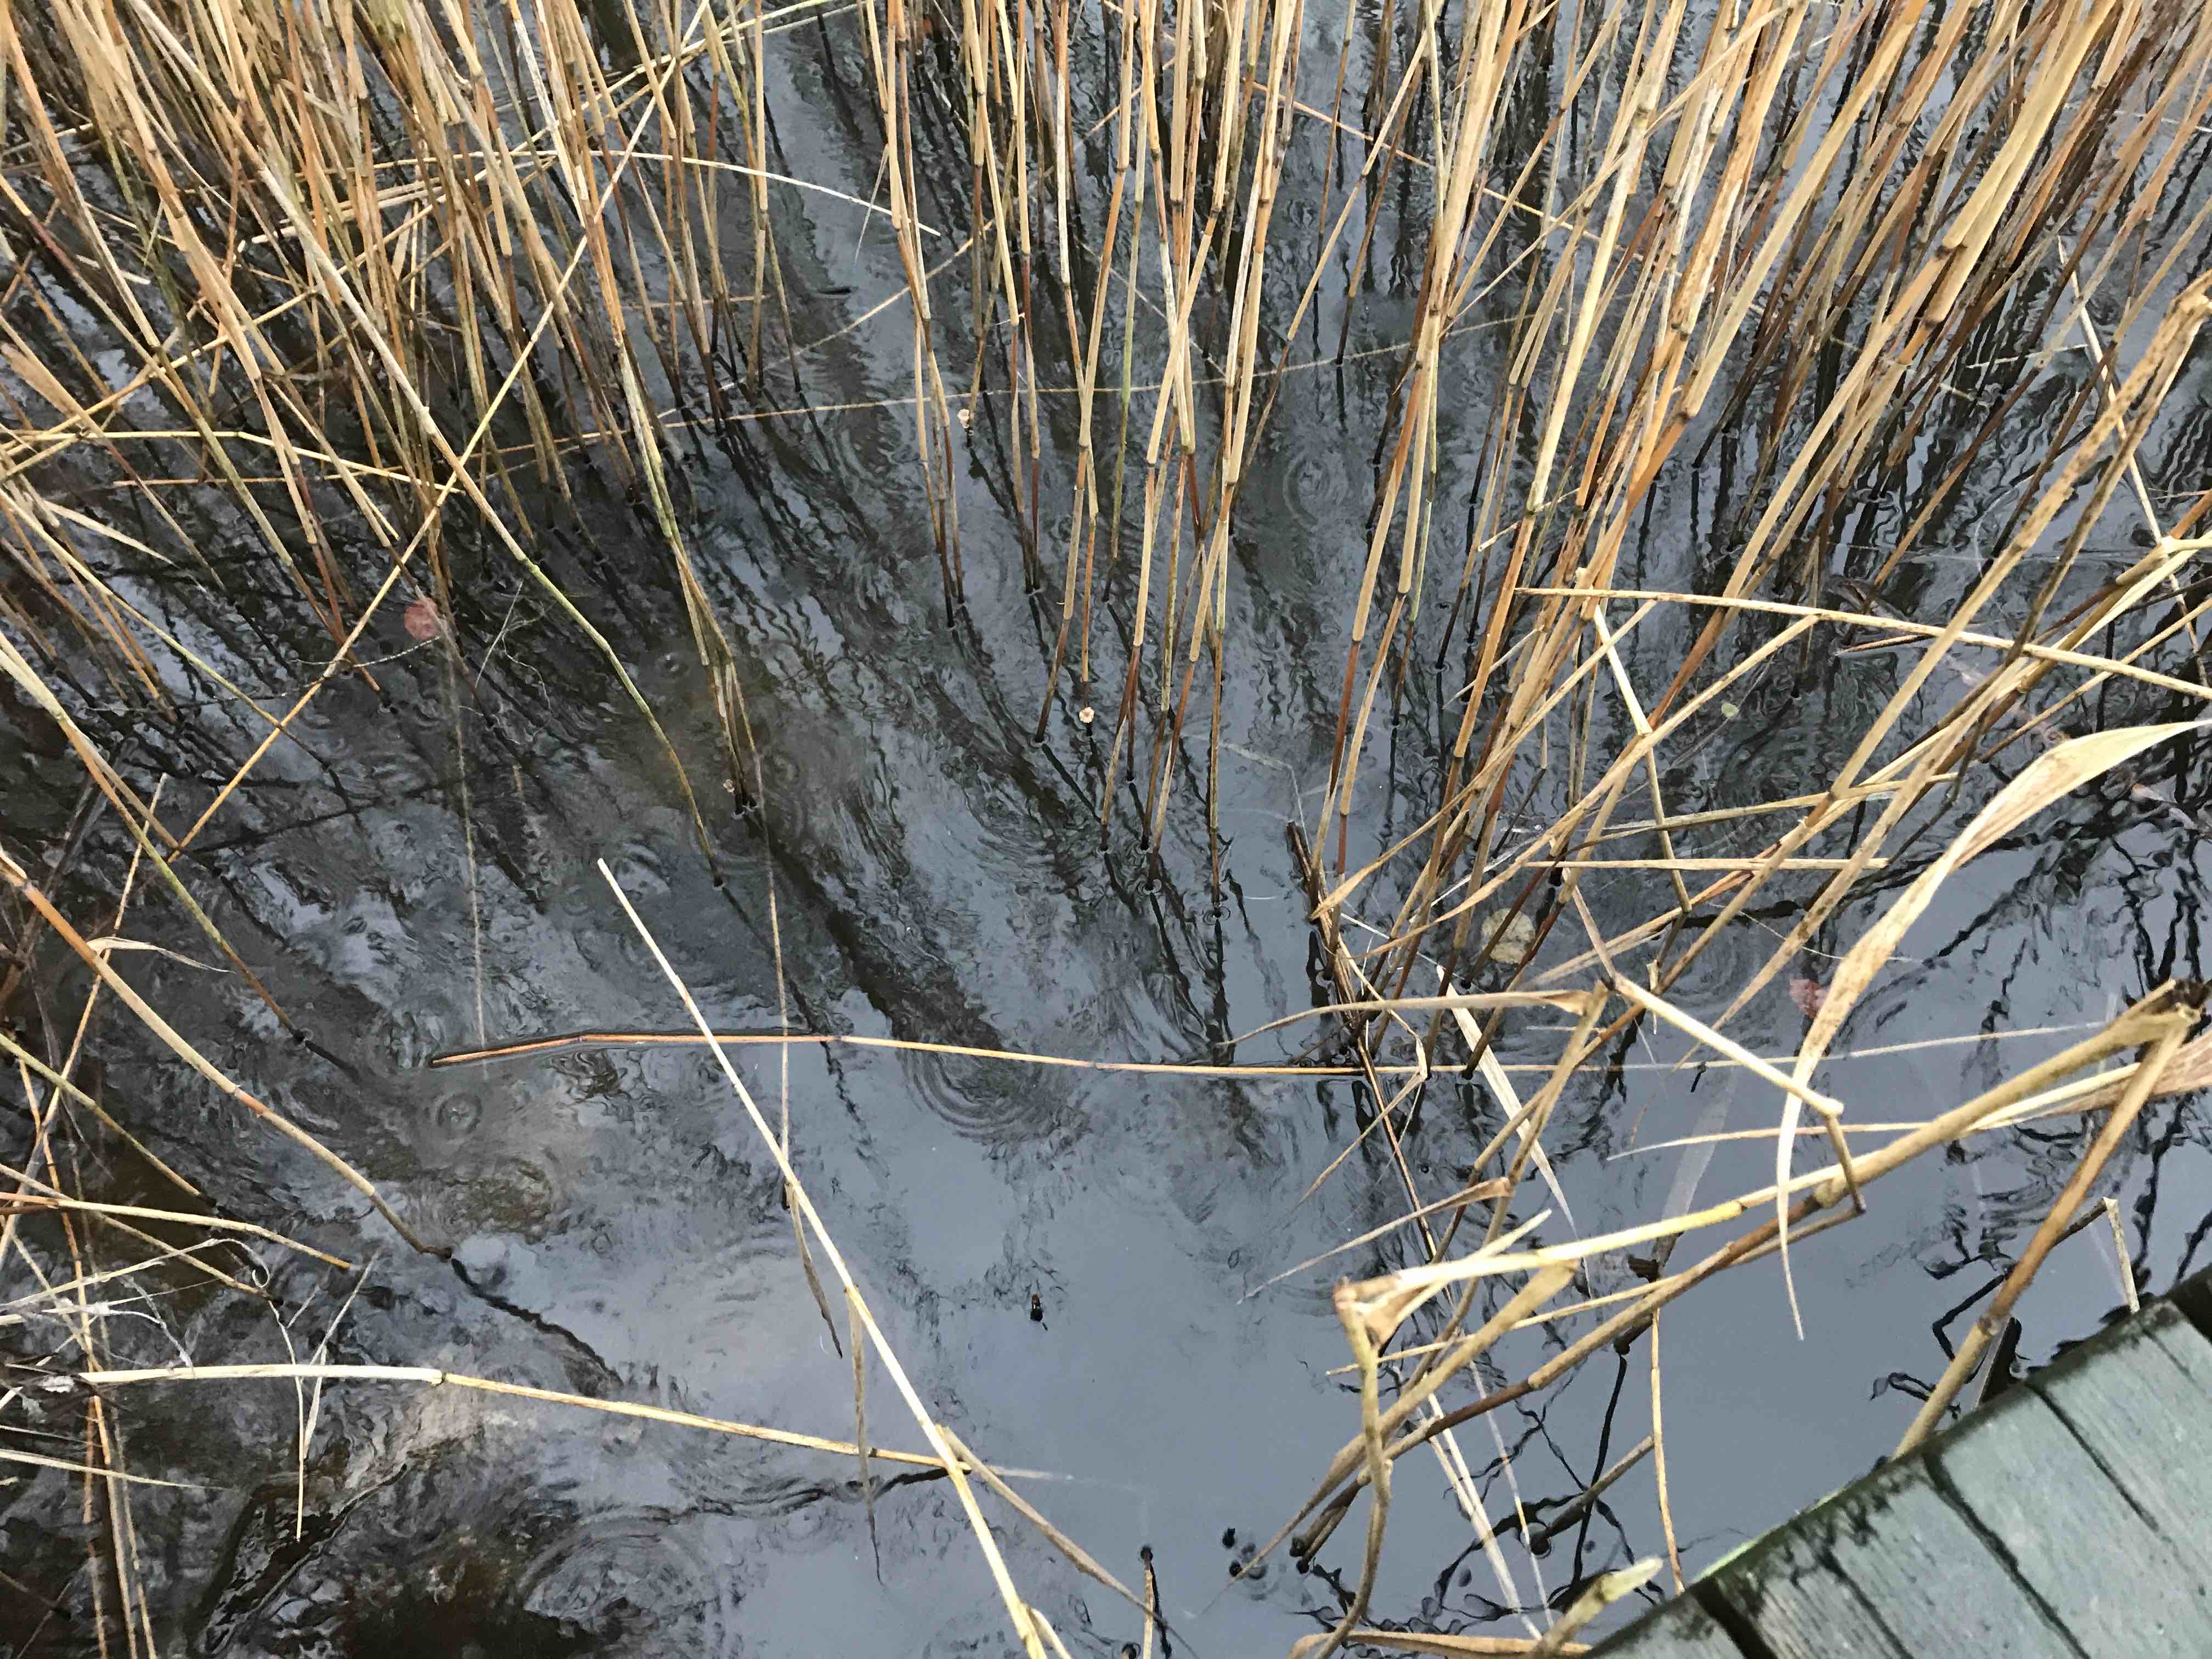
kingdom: Fungi
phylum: Basidiomycota
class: Agaricomycetes
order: Agaricales
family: Mycenaceae
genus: Mycena
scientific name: Mycena belliae
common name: tagrørs-huesvamp
